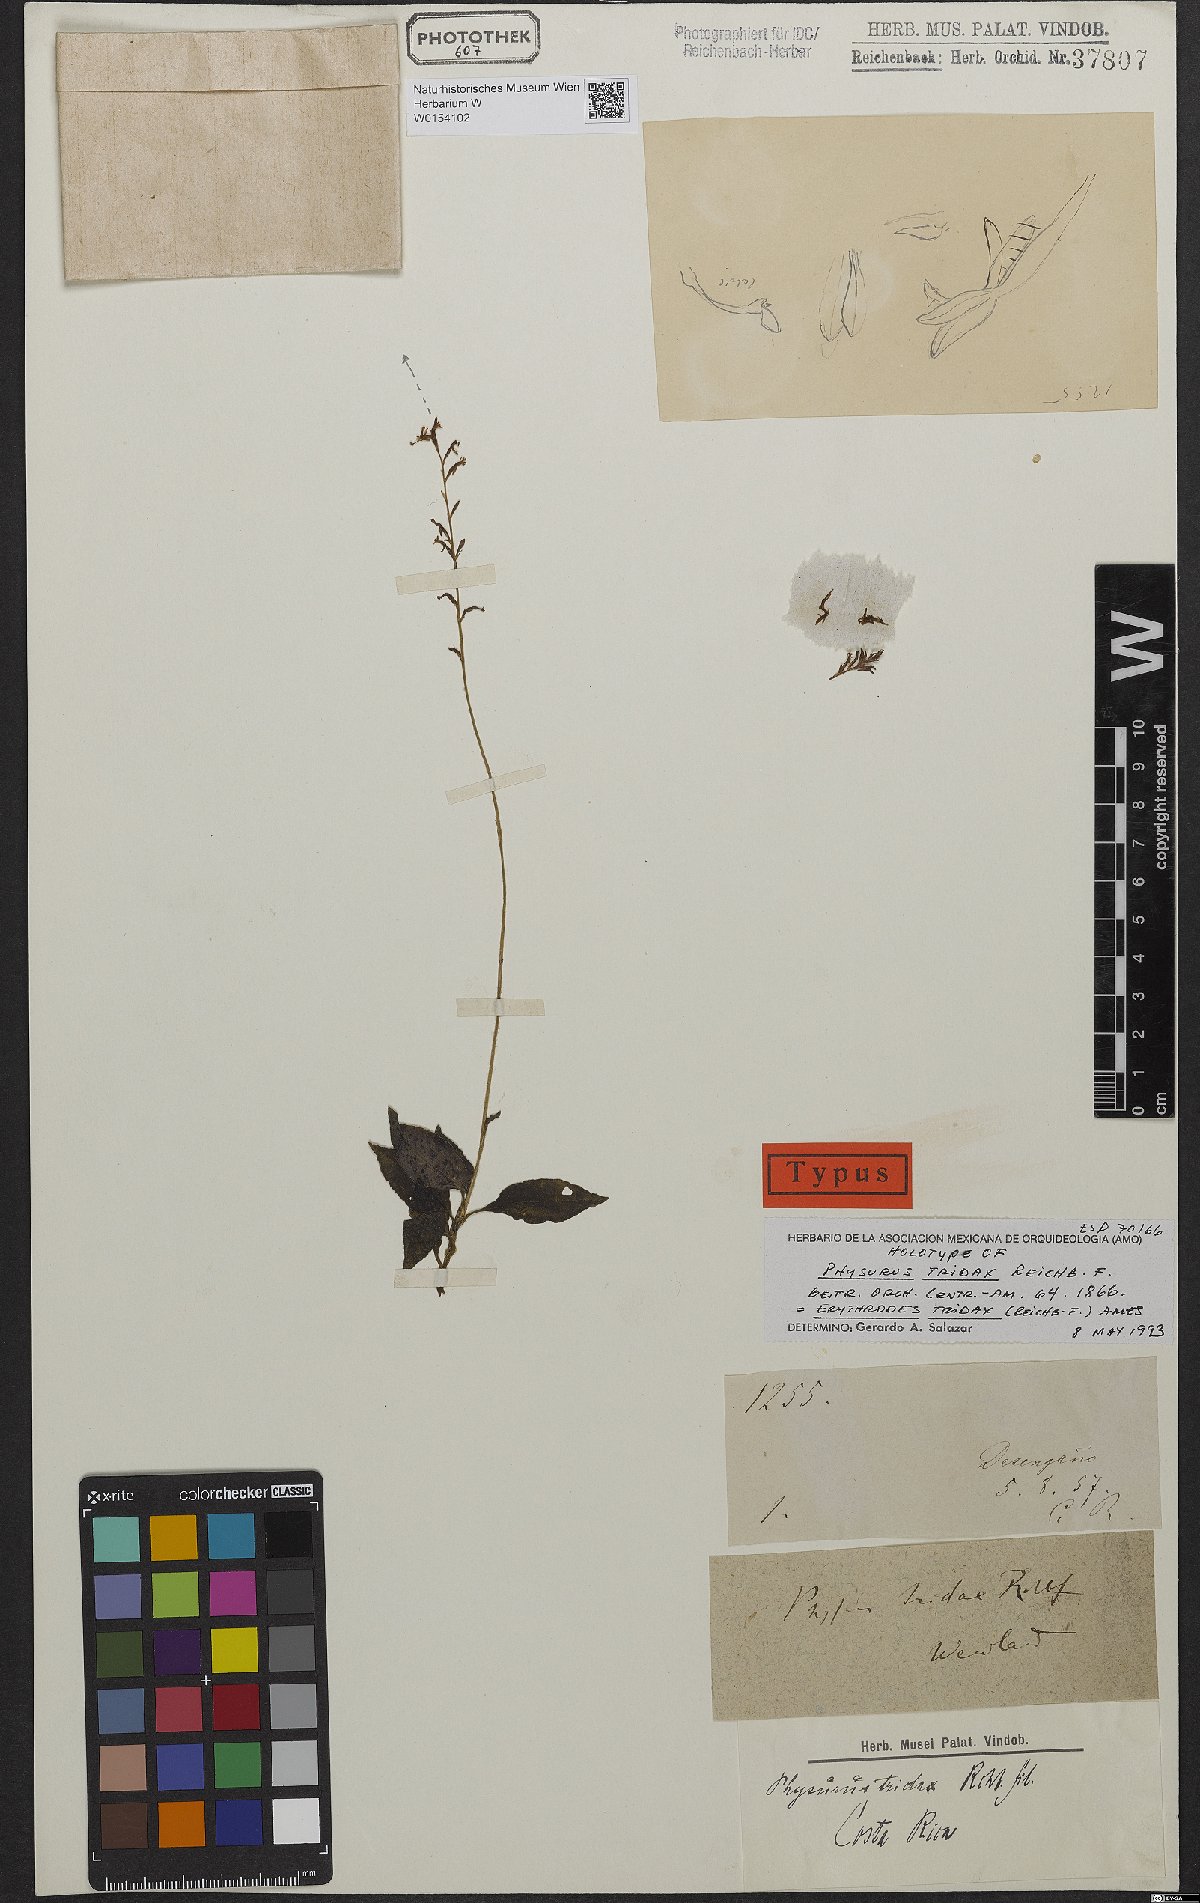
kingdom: Plantae
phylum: Tracheophyta
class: Liliopsida
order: Asparagales
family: Orchidaceae
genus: Microchilus
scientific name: Microchilus tridax
